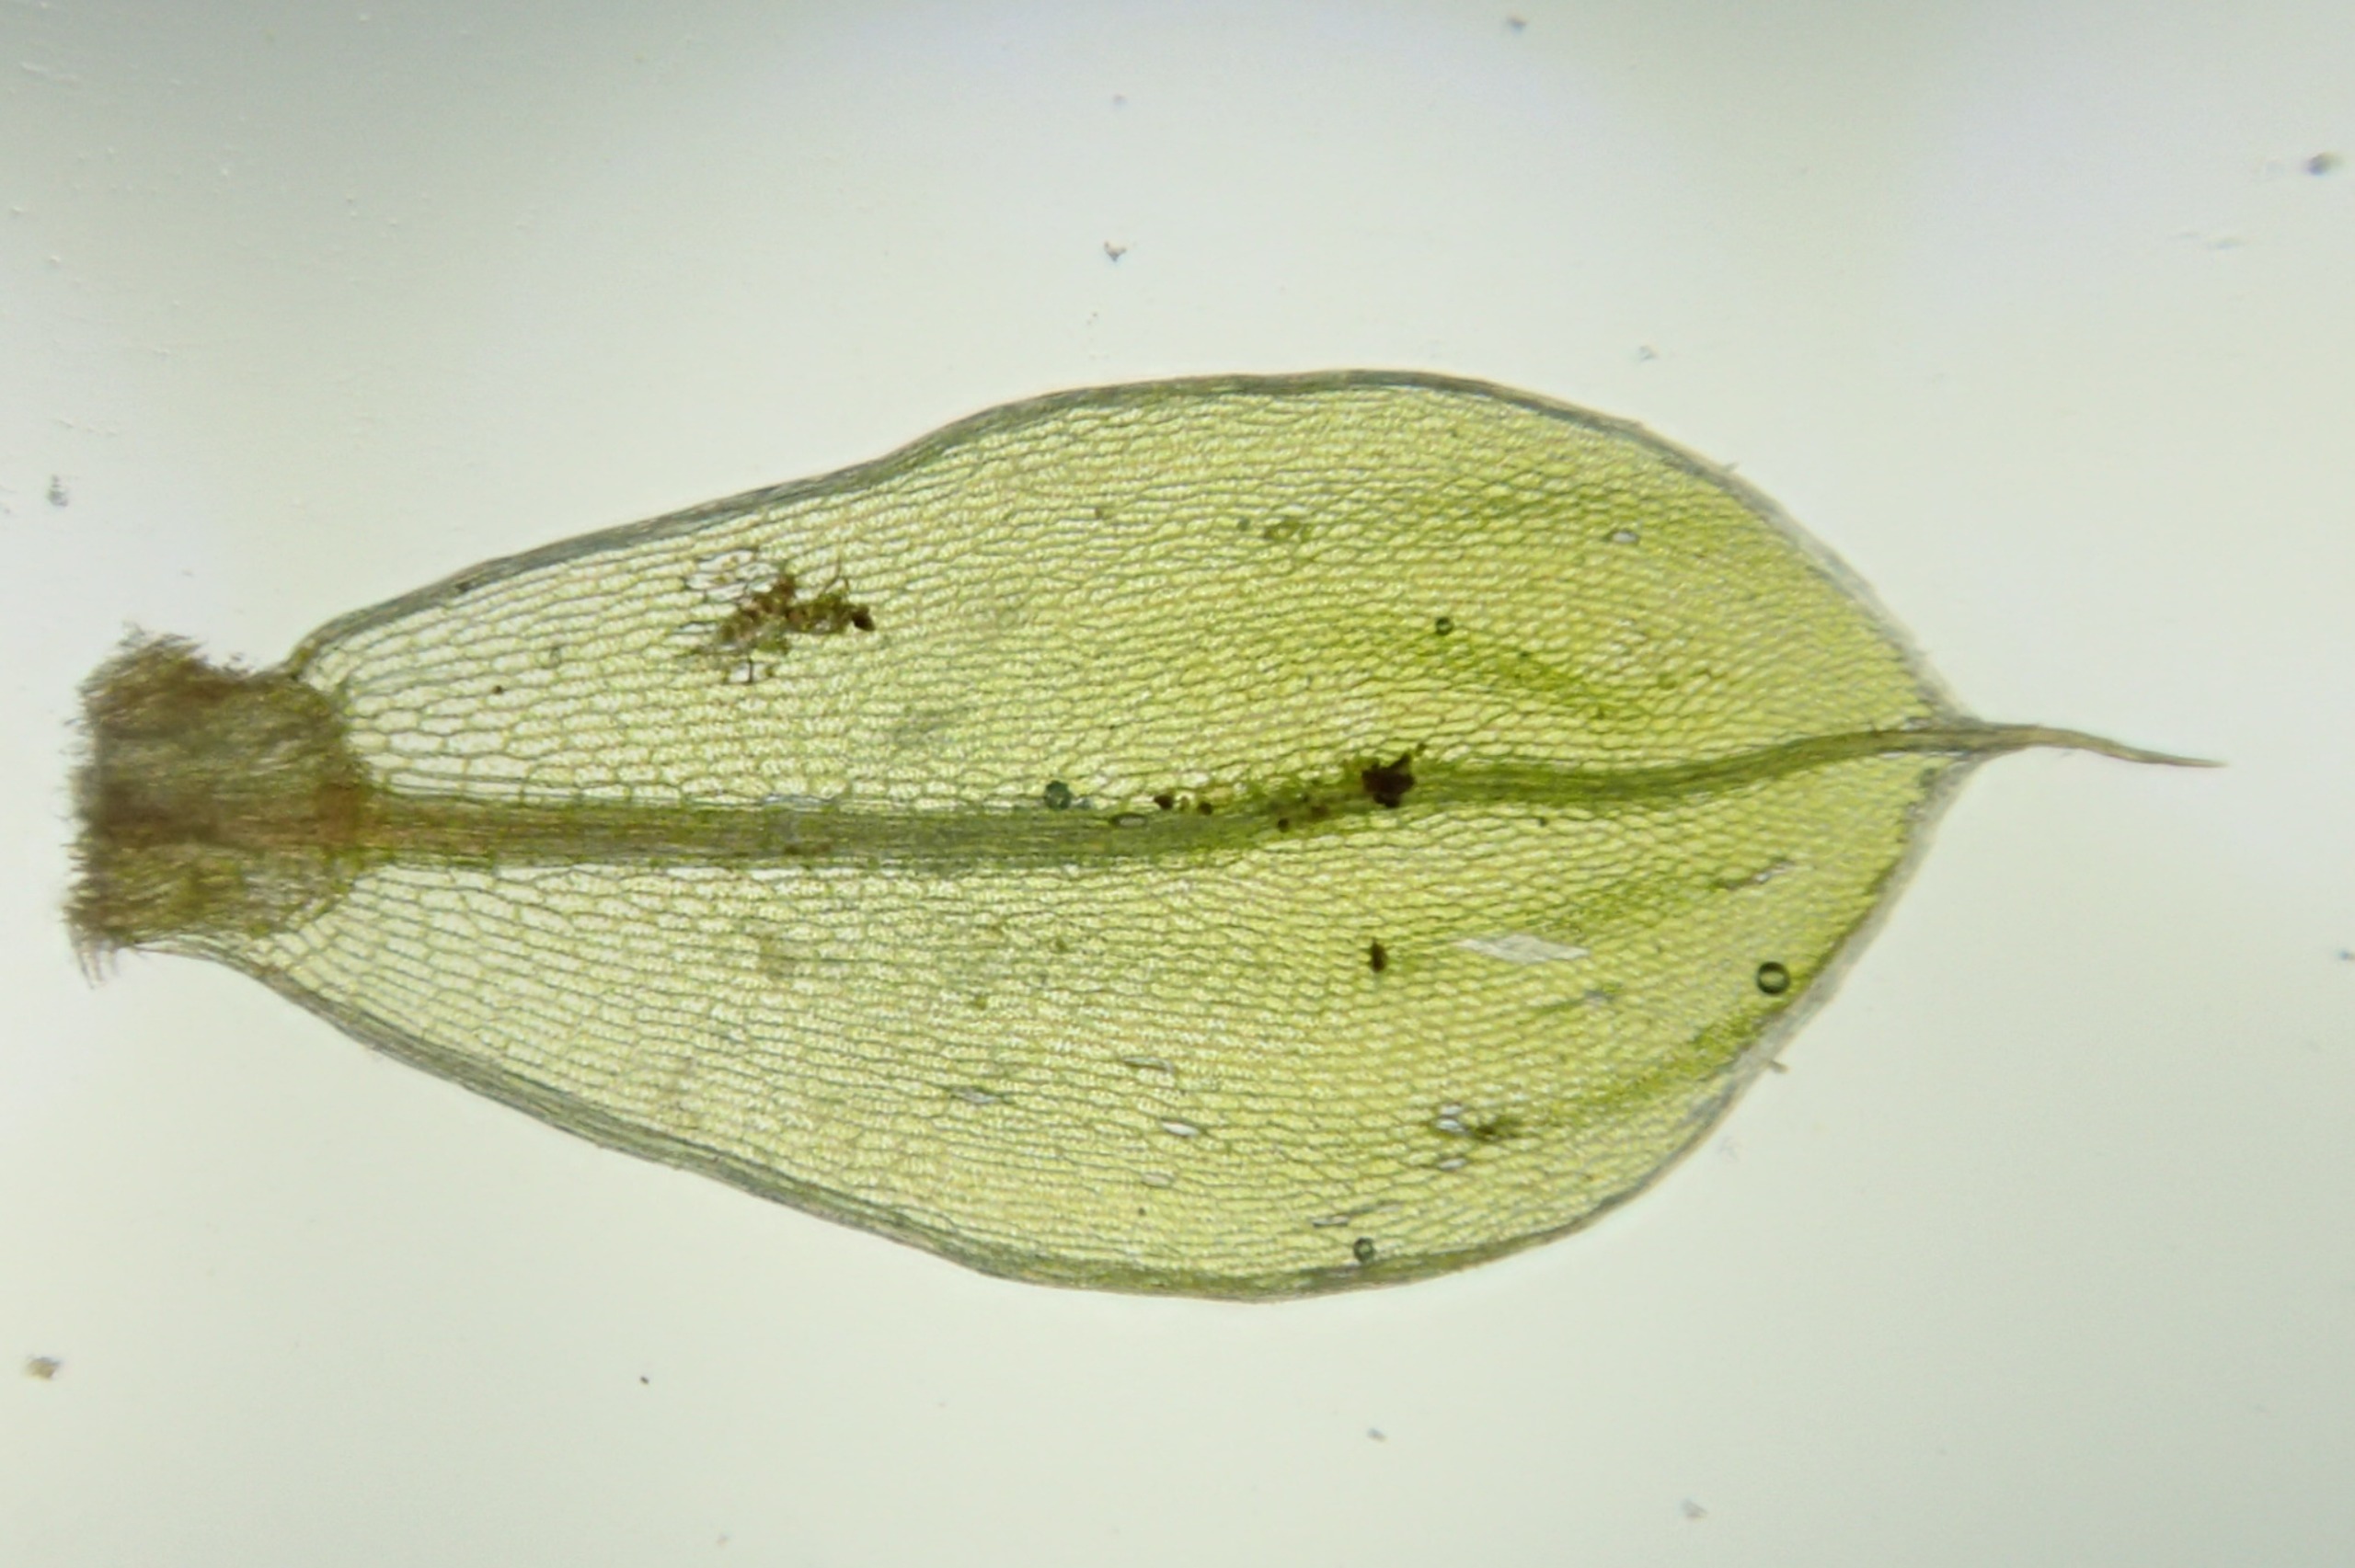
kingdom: Plantae
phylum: Bryophyta
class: Bryopsida
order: Bryales
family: Bryaceae
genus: Rosulabryum
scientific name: Rosulabryum capillare
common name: Hårspidset bryum
